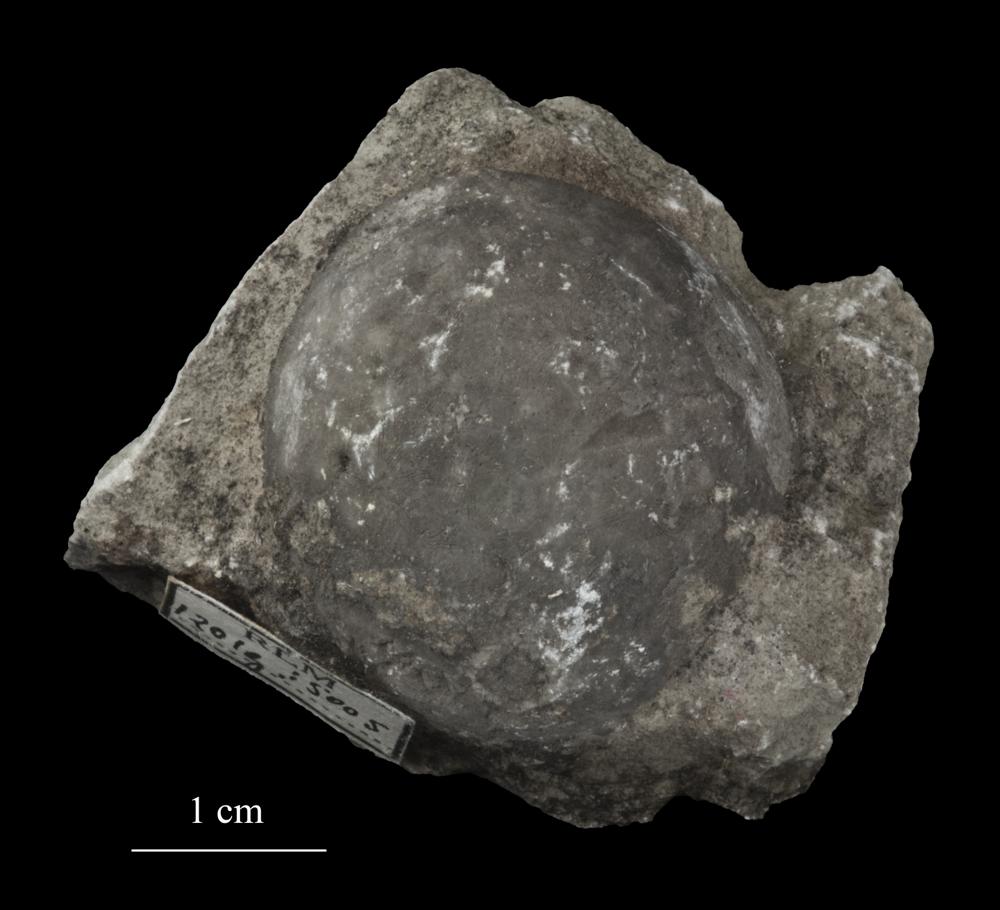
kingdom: Animalia
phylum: Echinodermata
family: Echinosphaeritidae
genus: Echinosphaerites
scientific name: Echinosphaerites Echinus aurantium
